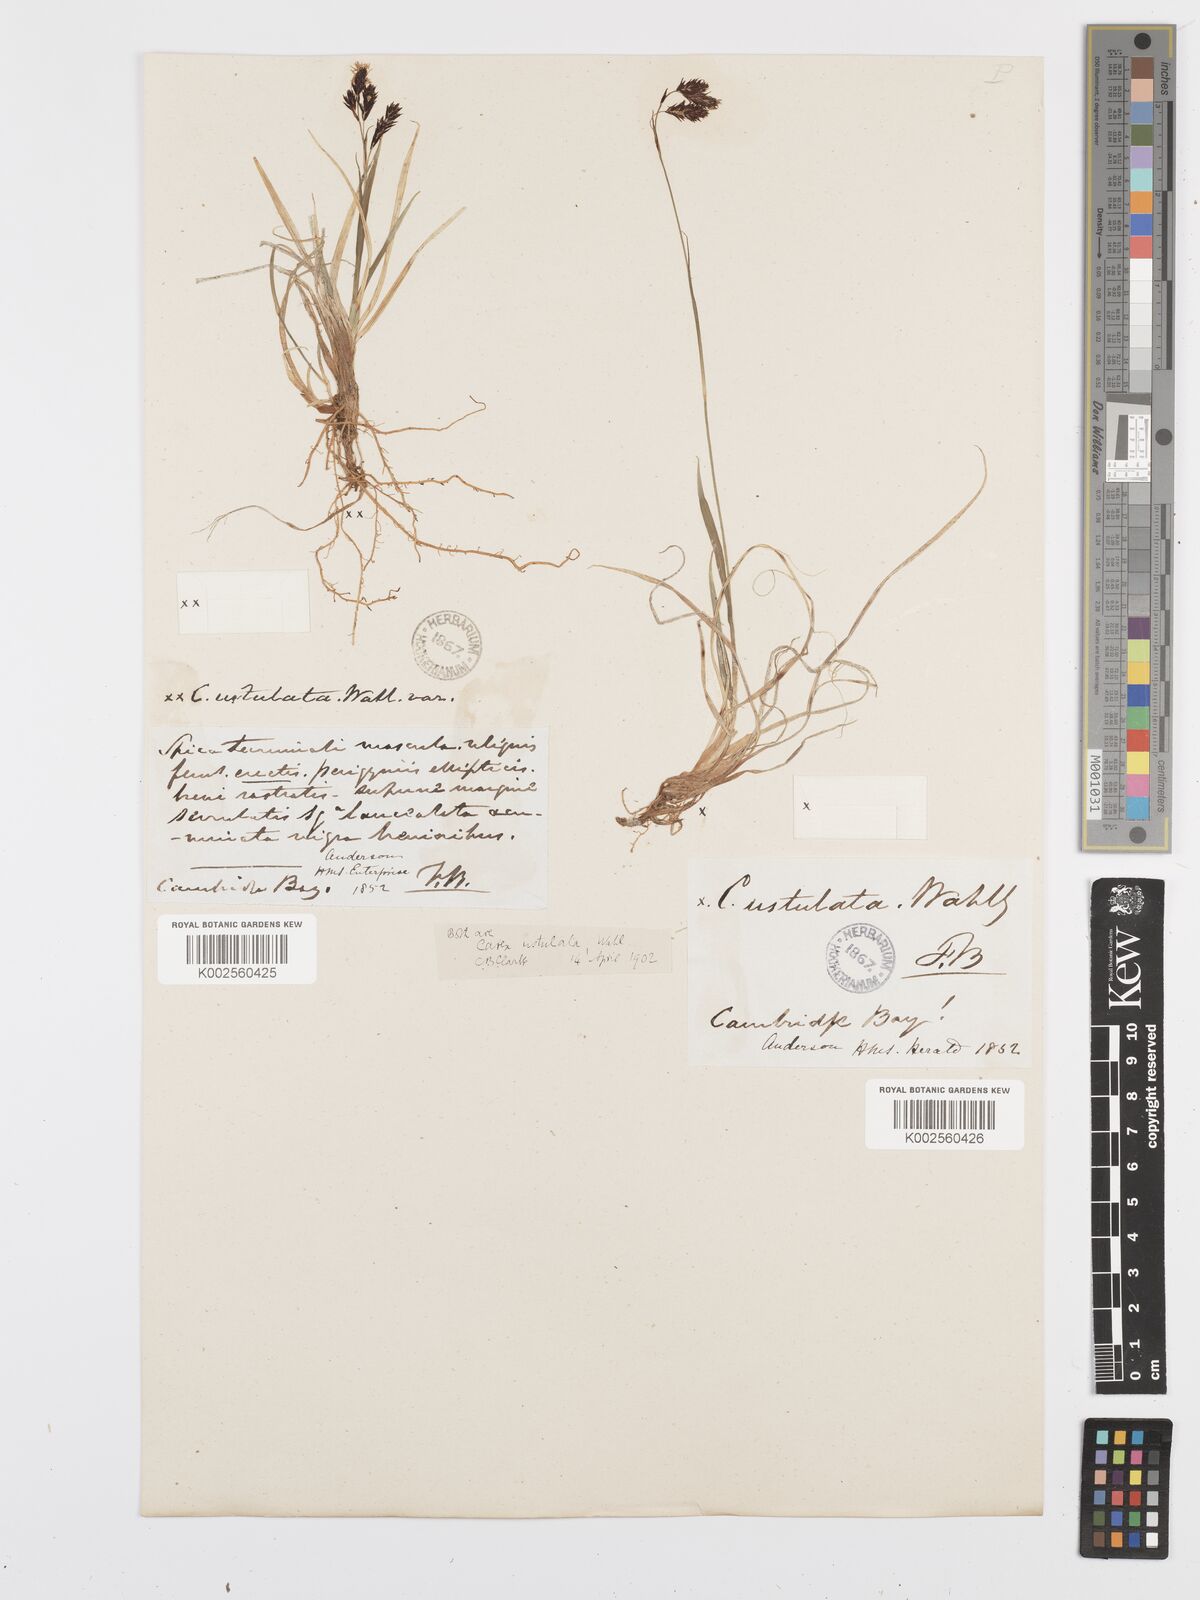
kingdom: Plantae
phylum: Tracheophyta
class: Liliopsida
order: Poales
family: Cyperaceae
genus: Carex
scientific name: Carex atrofusca
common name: Scorched alpine-sedge
